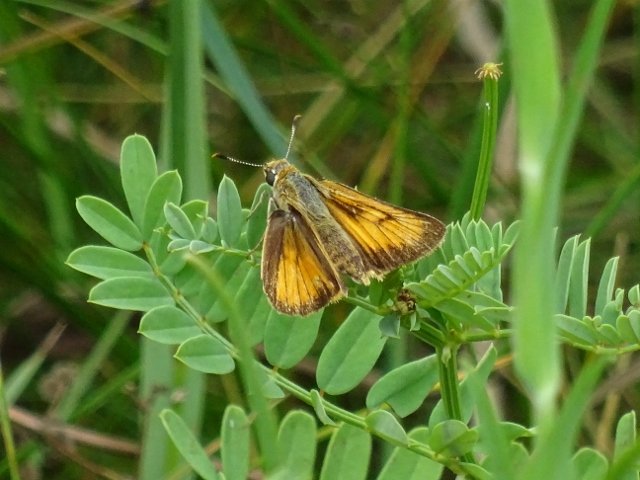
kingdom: Animalia
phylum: Arthropoda
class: Insecta
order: Lepidoptera
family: Hesperiidae
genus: Atrytone
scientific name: Atrytone delaware
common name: Delaware Skipper
